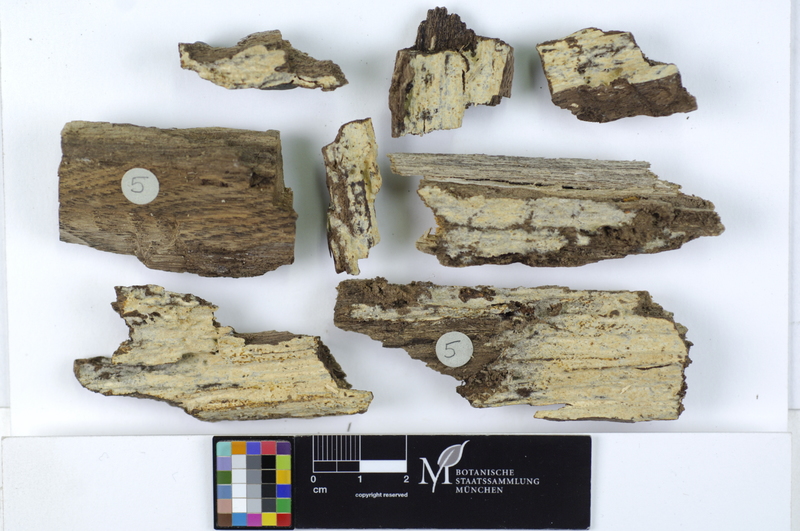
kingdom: Fungi
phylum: Basidiomycota
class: Agaricomycetes
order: Russulales
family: Peniophoraceae
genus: Gloiothele
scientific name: Gloiothele lactescens
